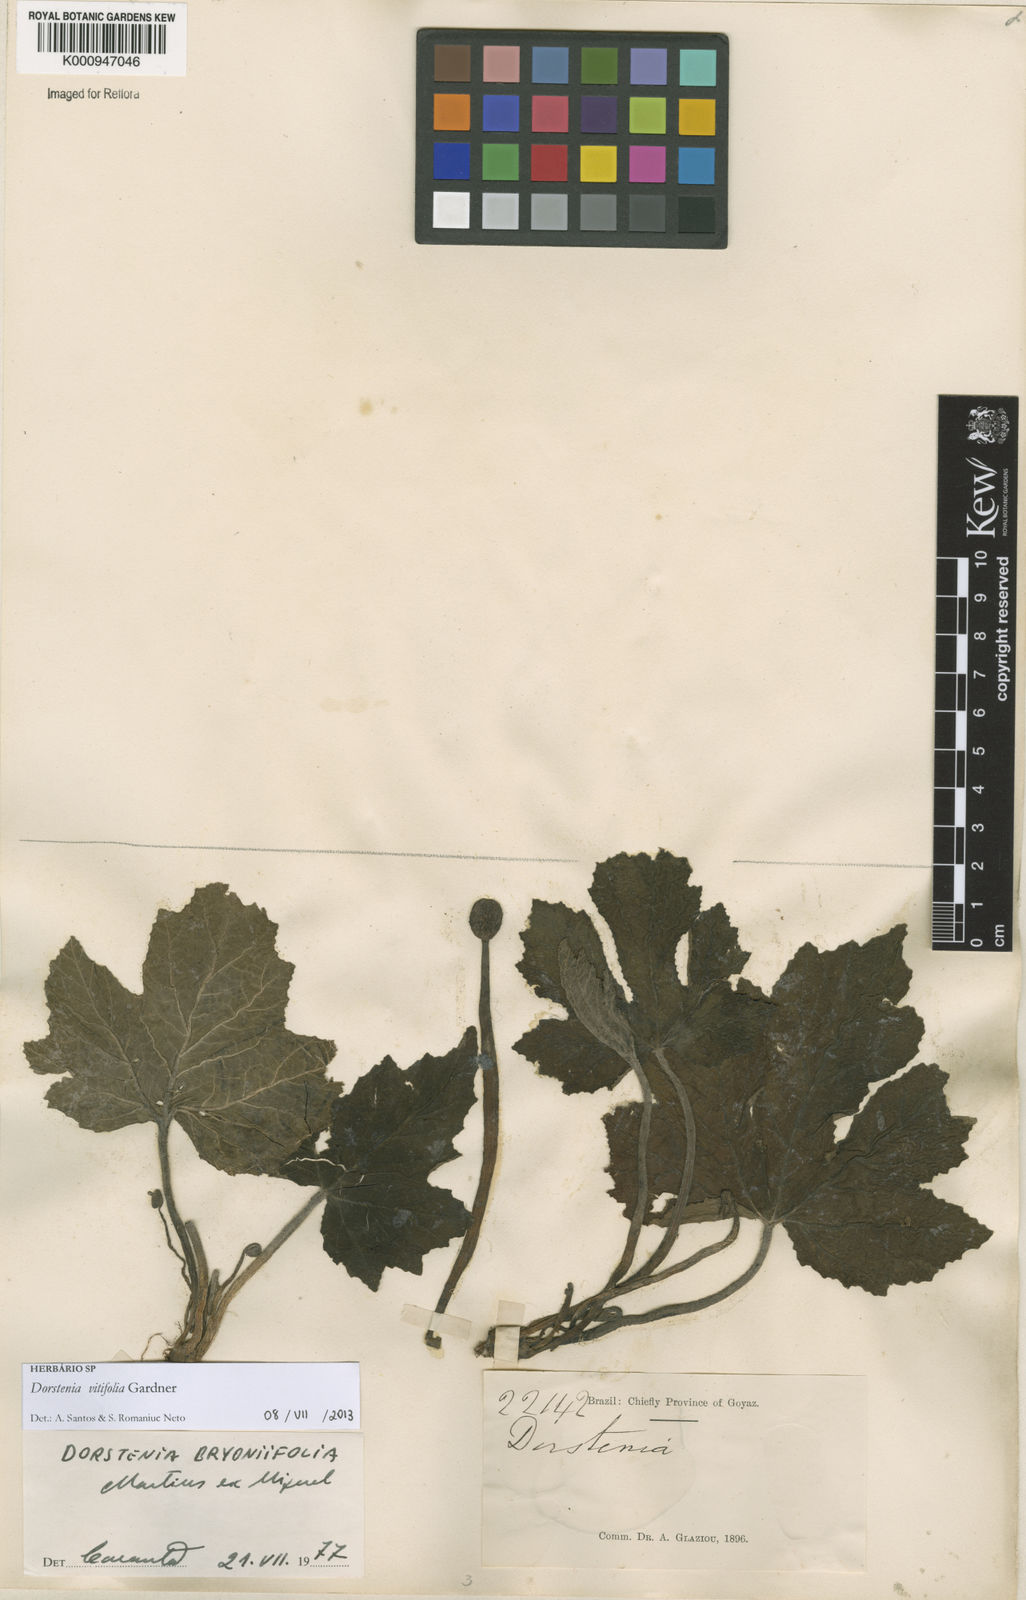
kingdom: Plantae
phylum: Tracheophyta
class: Magnoliopsida
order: Rosales
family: Moraceae
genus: Dorstenia
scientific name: Dorstenia cayapia
